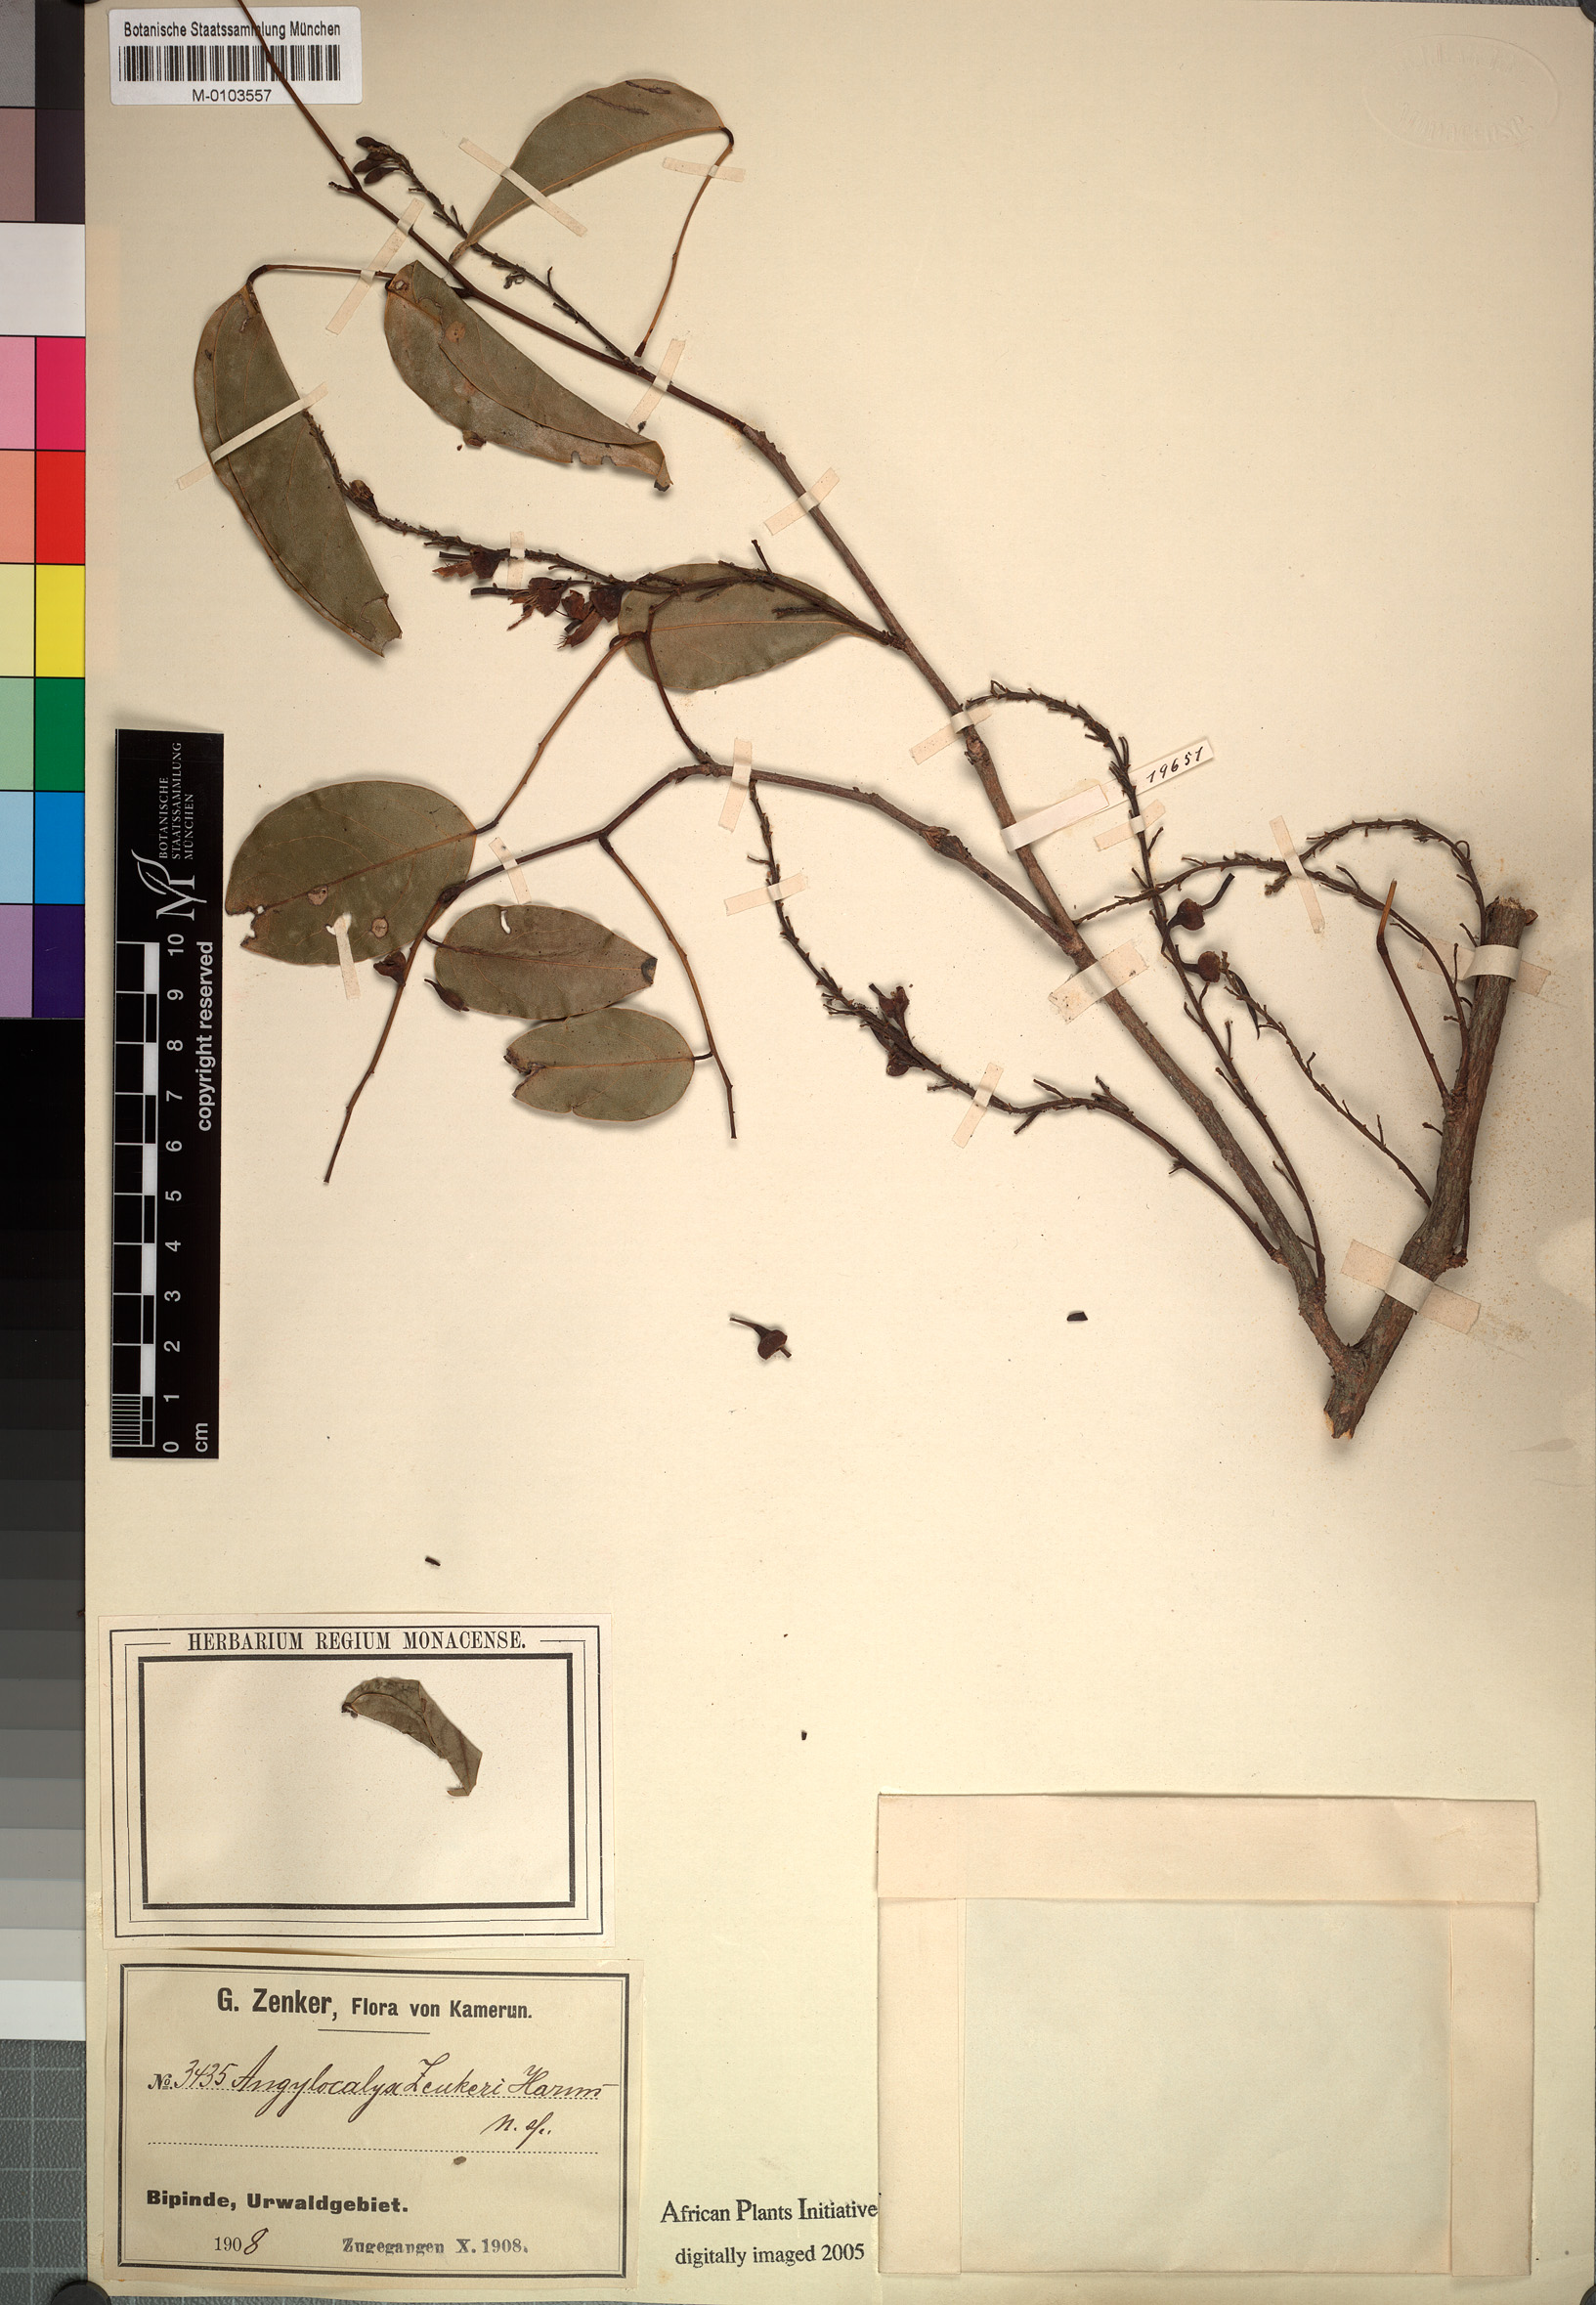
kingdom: Plantae
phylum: Tracheophyta
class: Magnoliopsida
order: Fabales
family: Fabaceae
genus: Angylocalyx
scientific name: Angylocalyx pynaertii
